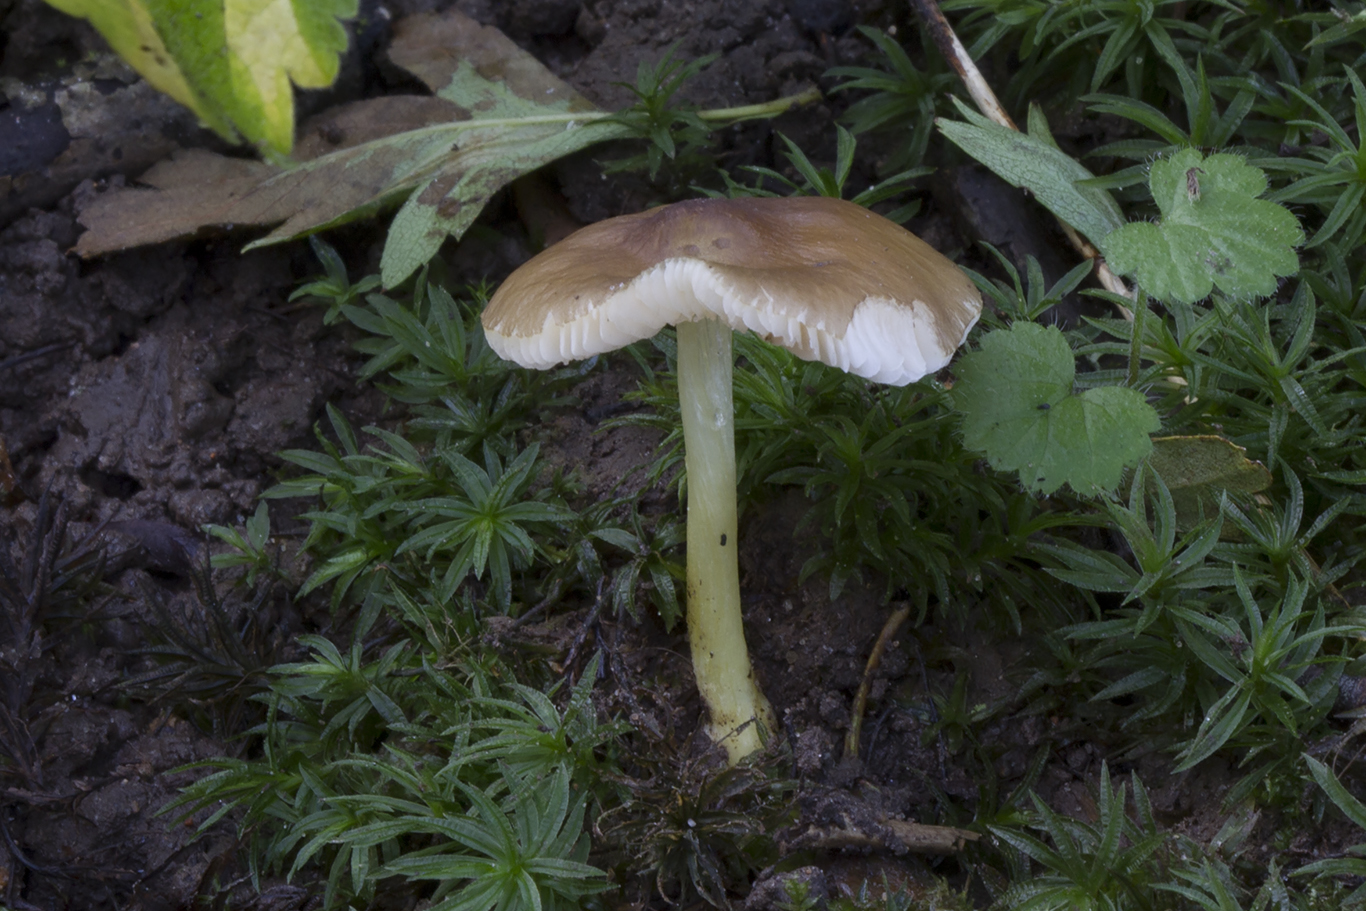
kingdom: Fungi
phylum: Basidiomycota
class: Agaricomycetes
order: Agaricales
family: Pluteaceae
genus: Pluteus
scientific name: Pluteus romellii
